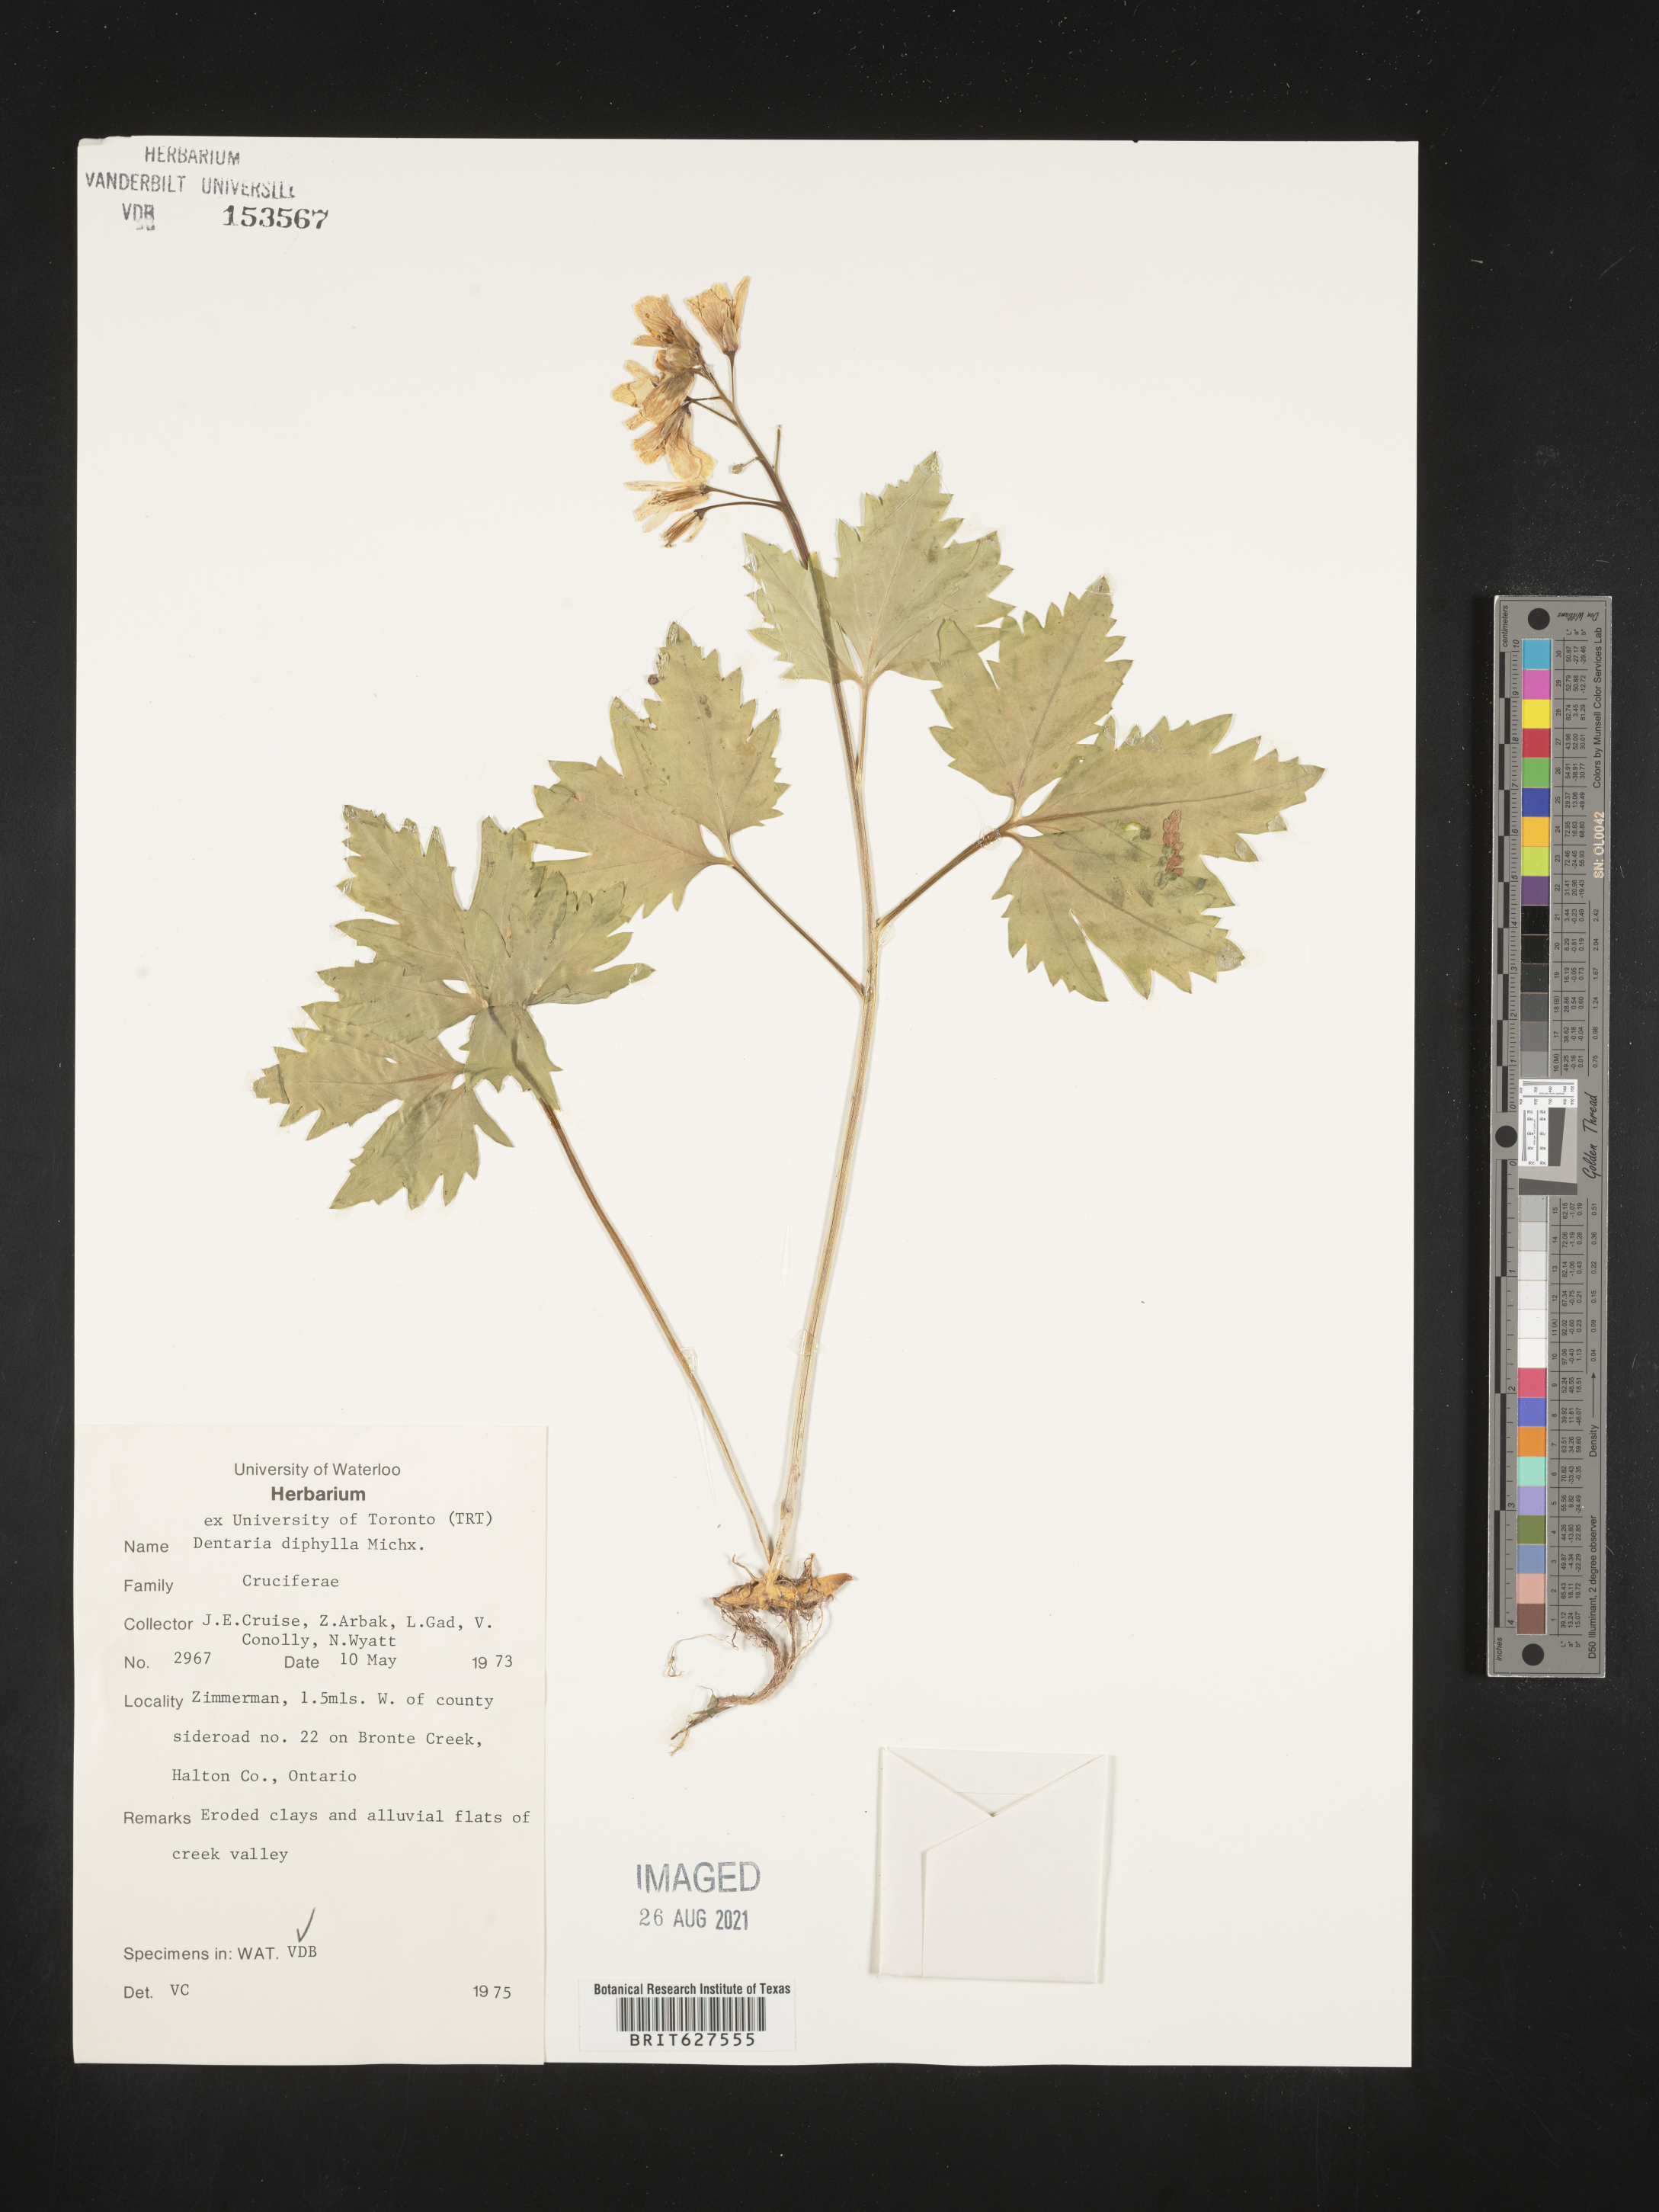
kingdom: Plantae
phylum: Tracheophyta
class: Magnoliopsida
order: Brassicales
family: Brassicaceae
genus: Cardamine
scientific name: Cardamine diphylla
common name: Broad-leaved toothwort
